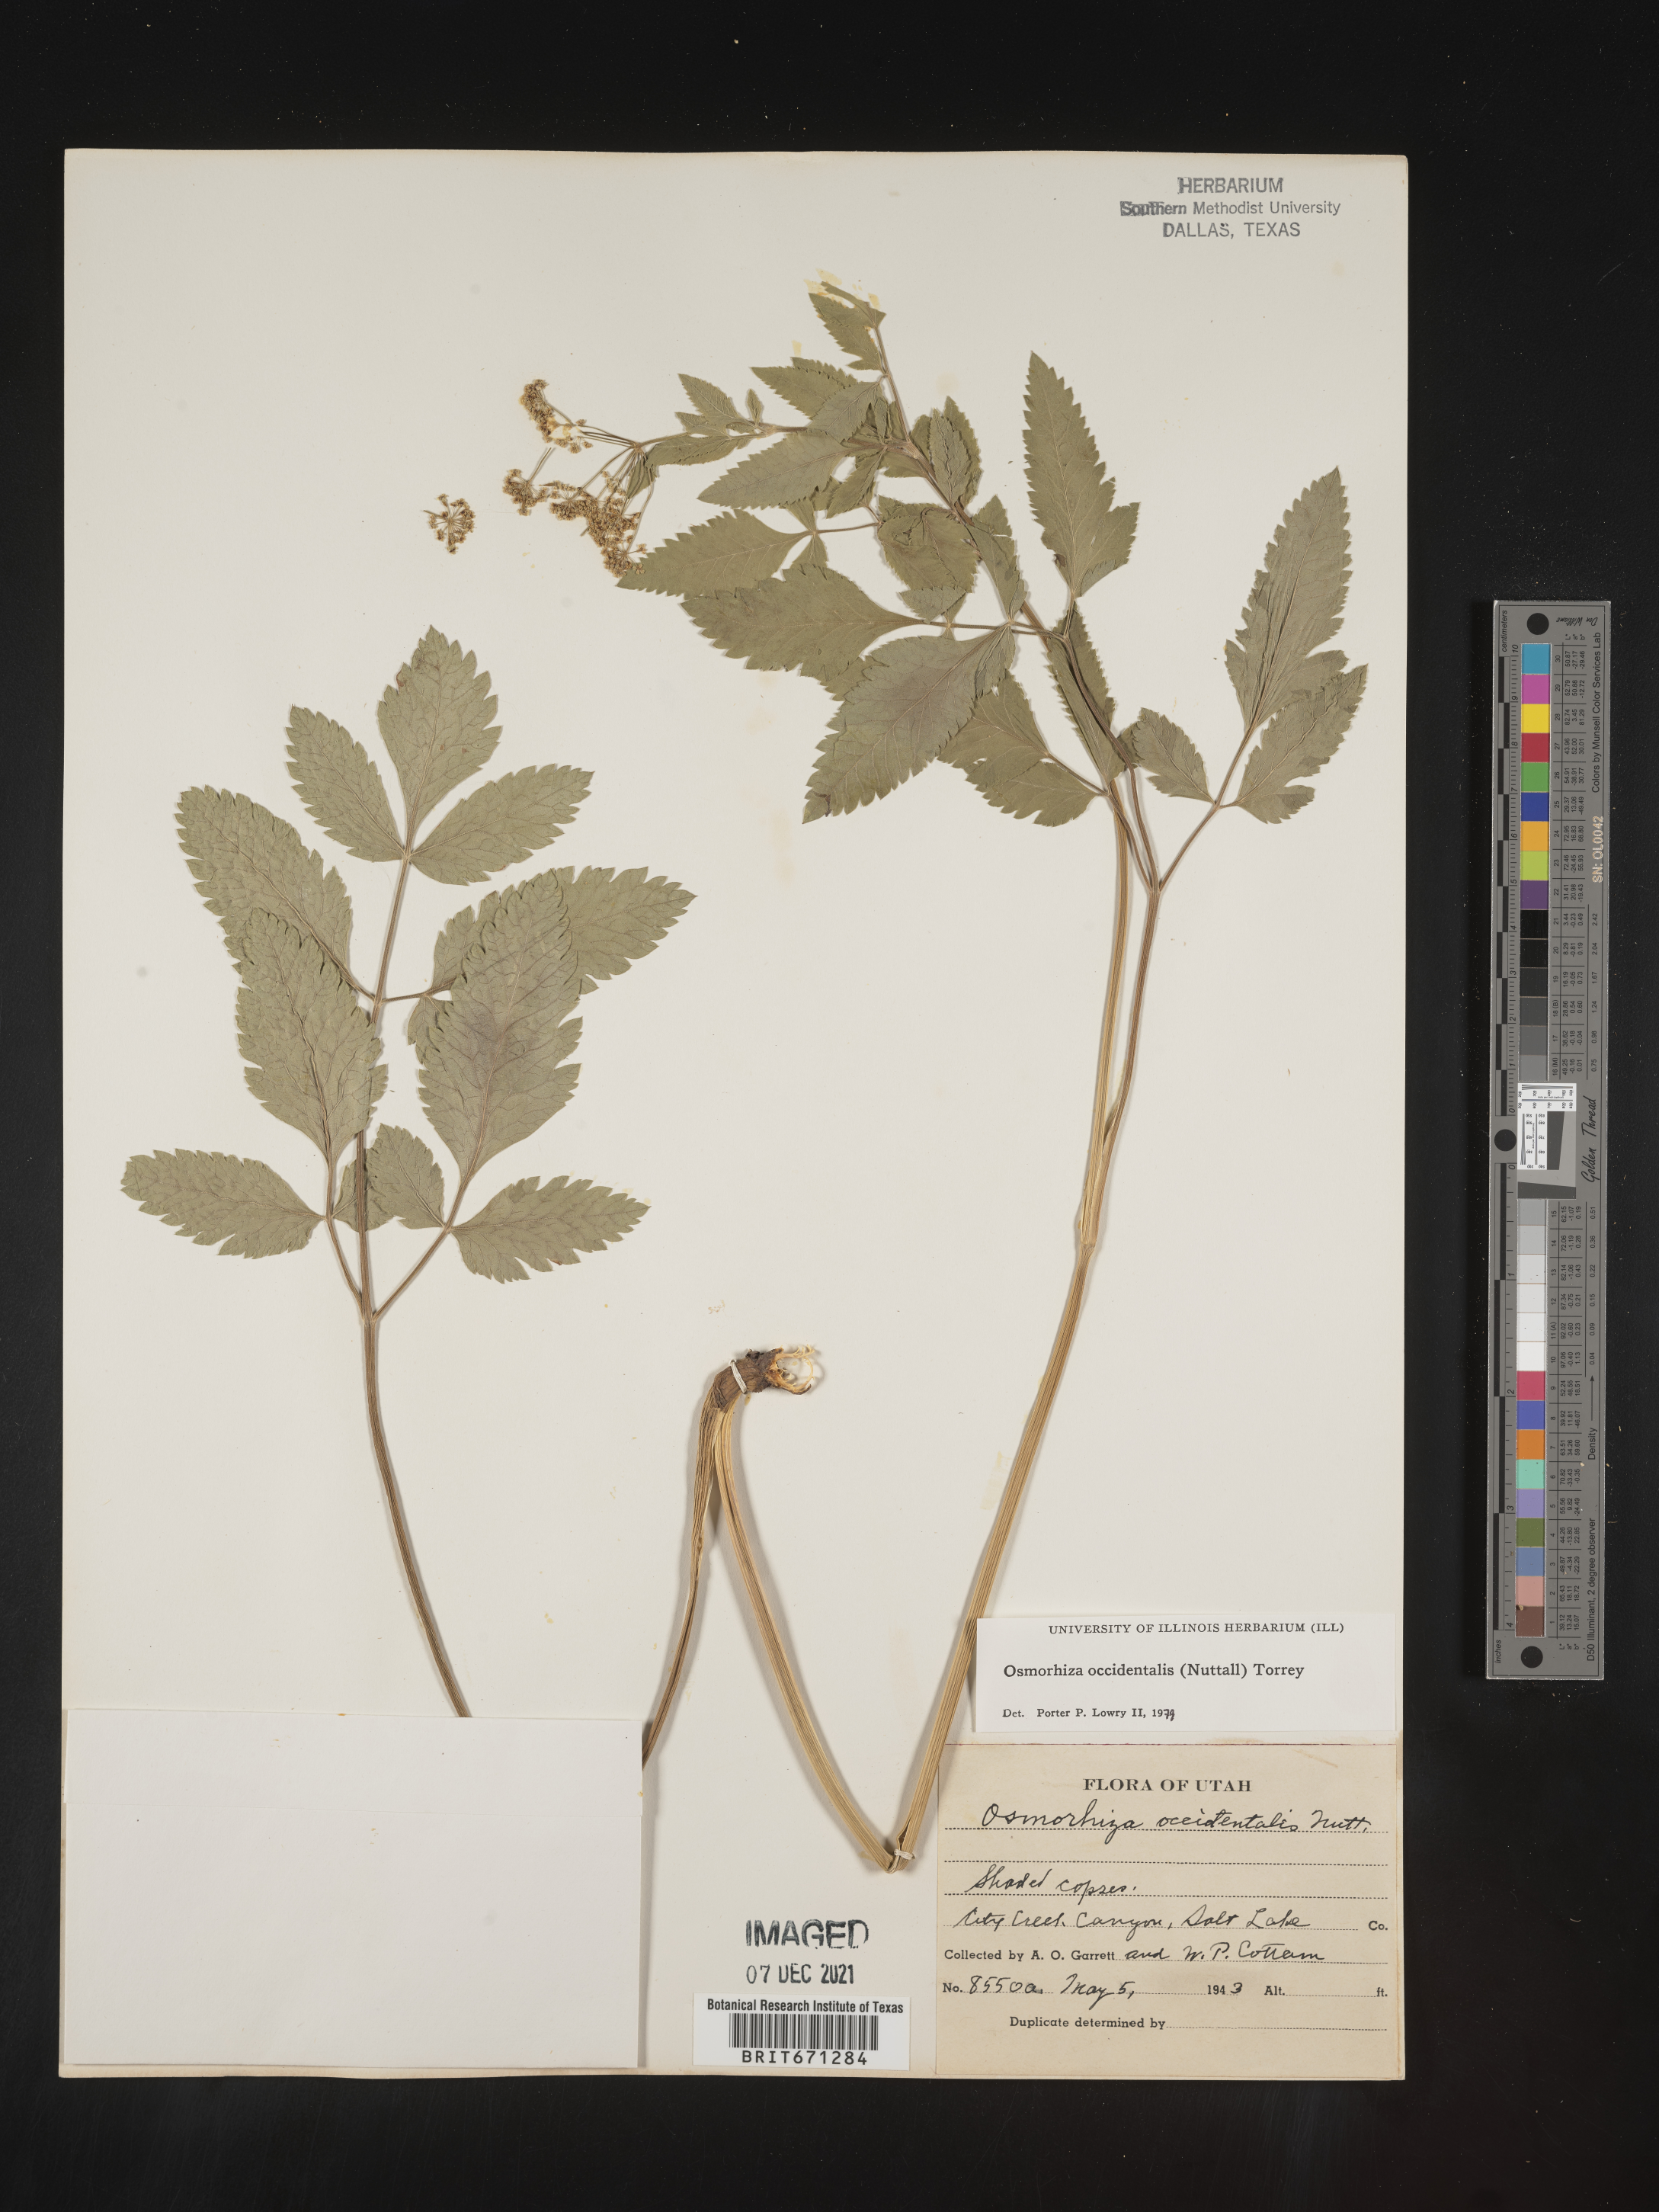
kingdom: Plantae
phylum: Tracheophyta
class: Magnoliopsida
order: Apiales
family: Apiaceae
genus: Osmorhiza
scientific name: Osmorhiza occidentalis
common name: Western sweet cicely
